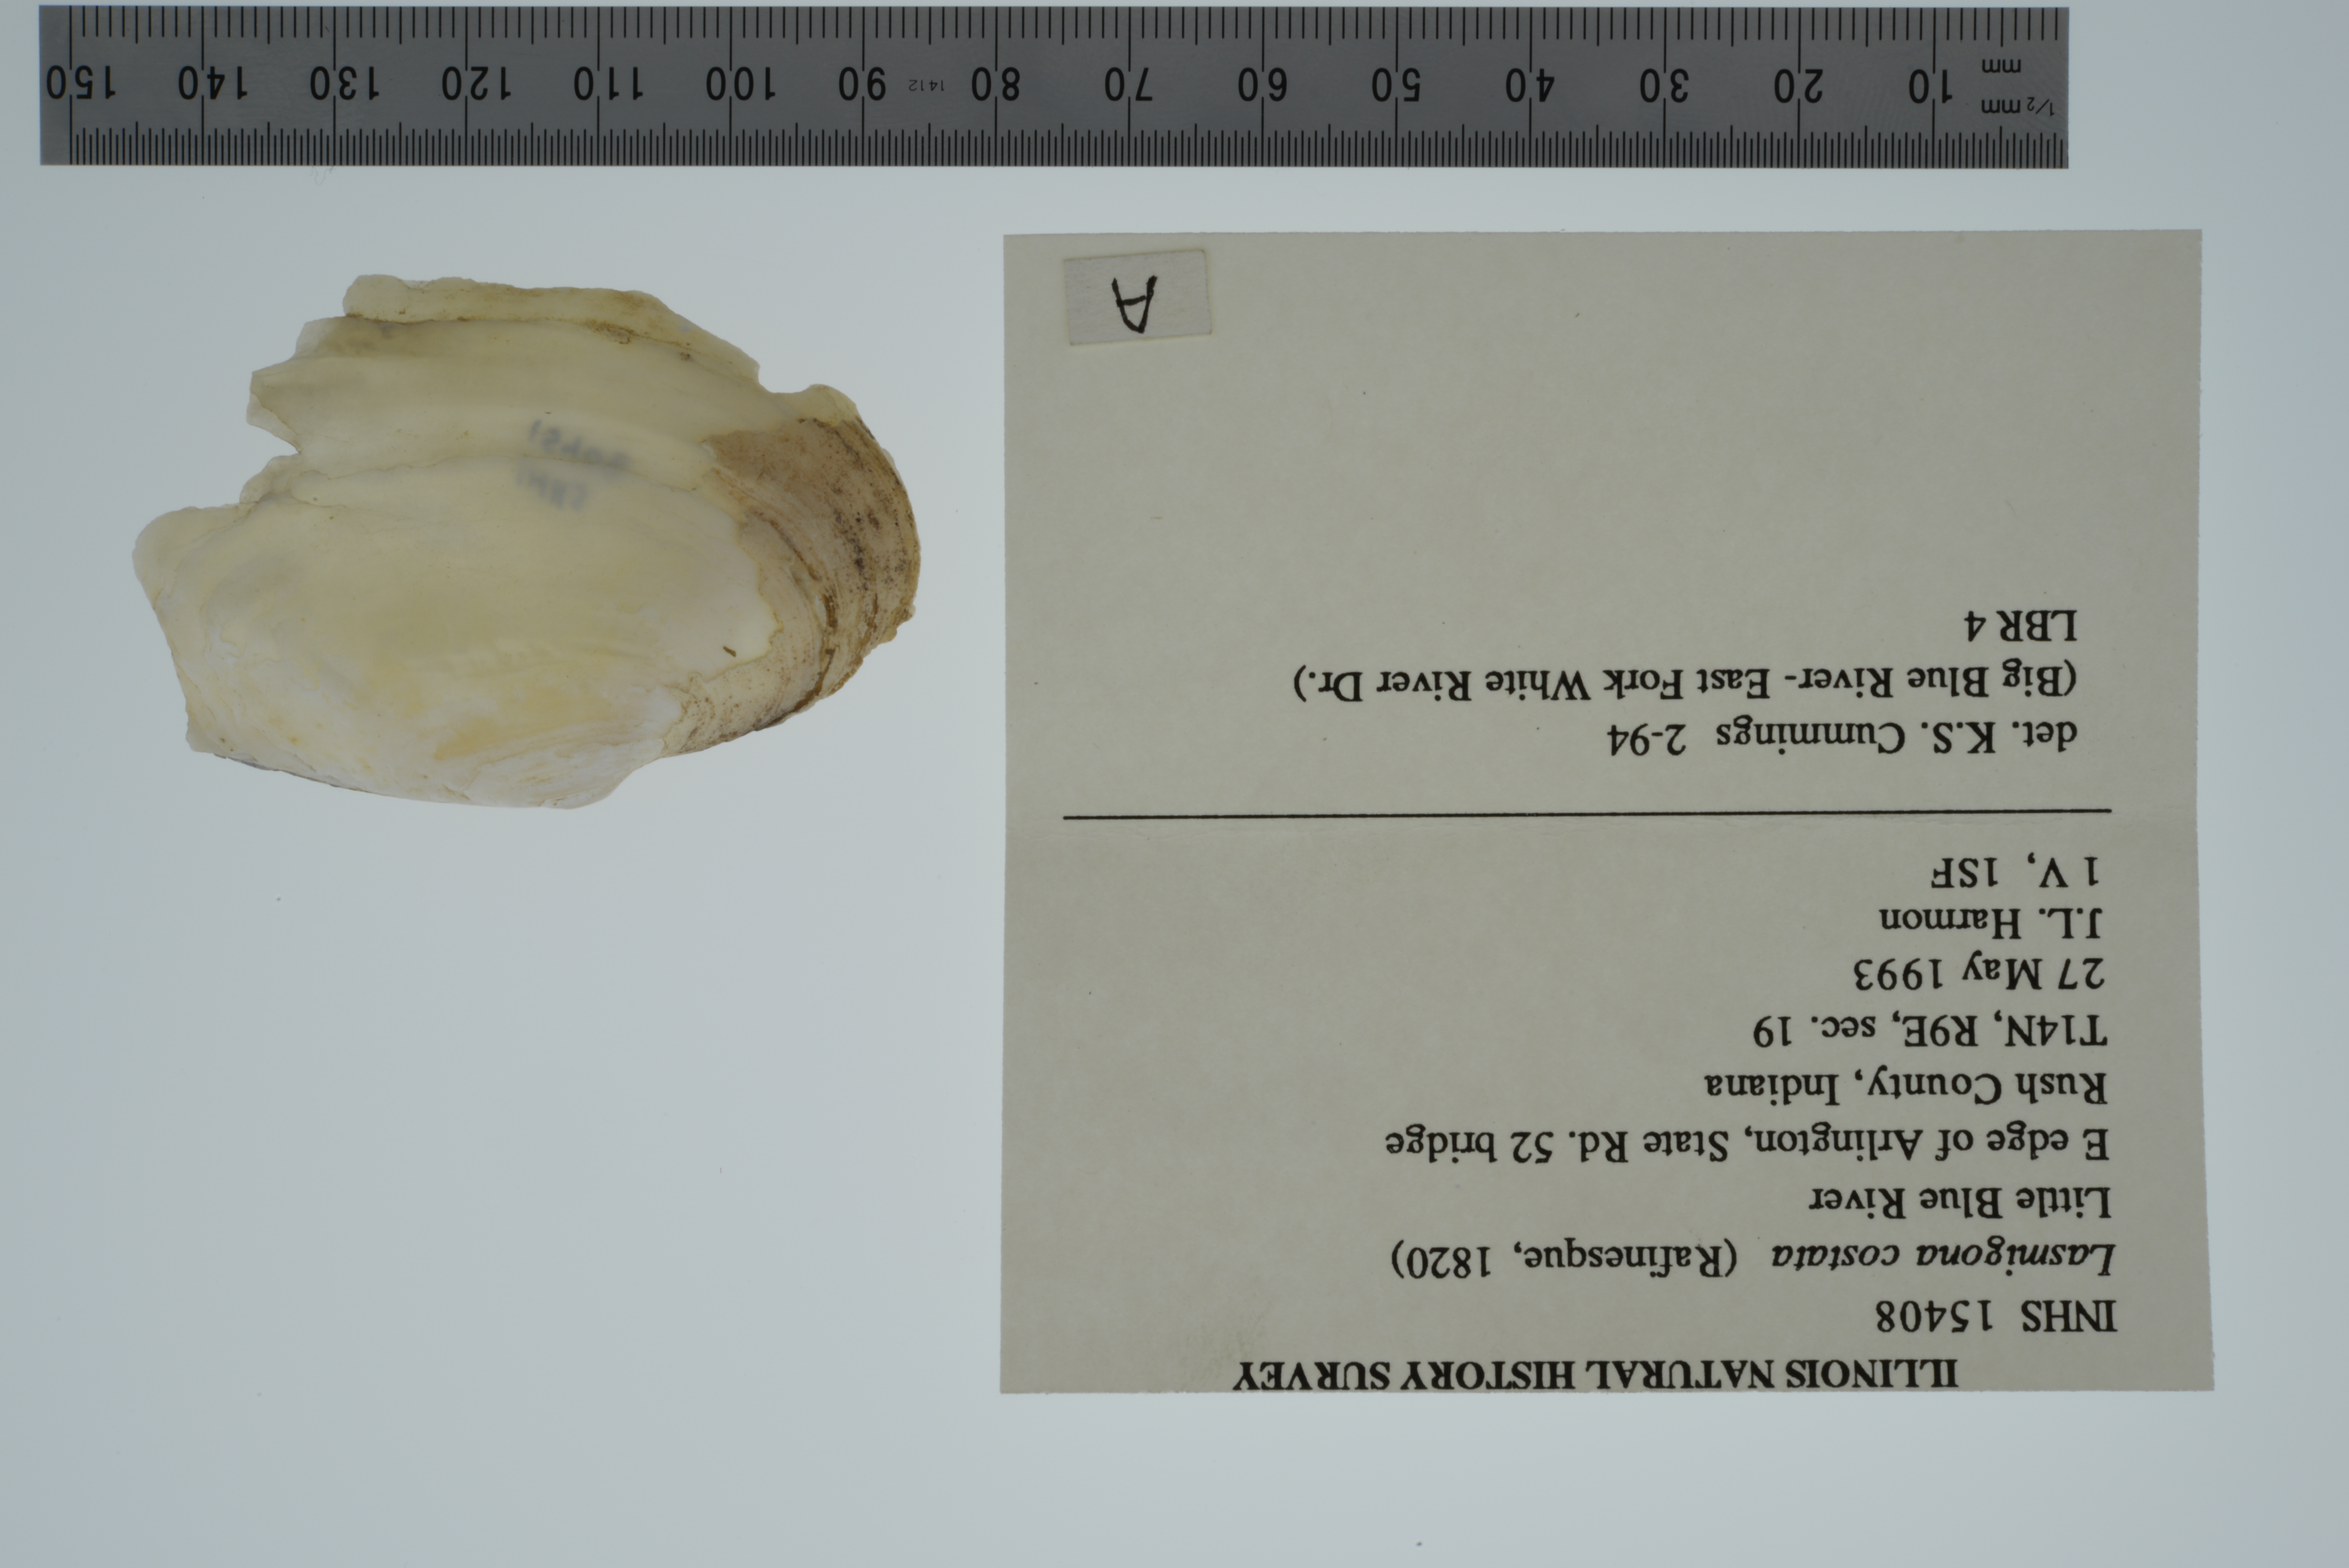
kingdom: Animalia
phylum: Mollusca
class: Bivalvia
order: Unionida
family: Unionidae
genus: Lasmigona
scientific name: Lasmigona costata
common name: Flutedshell
